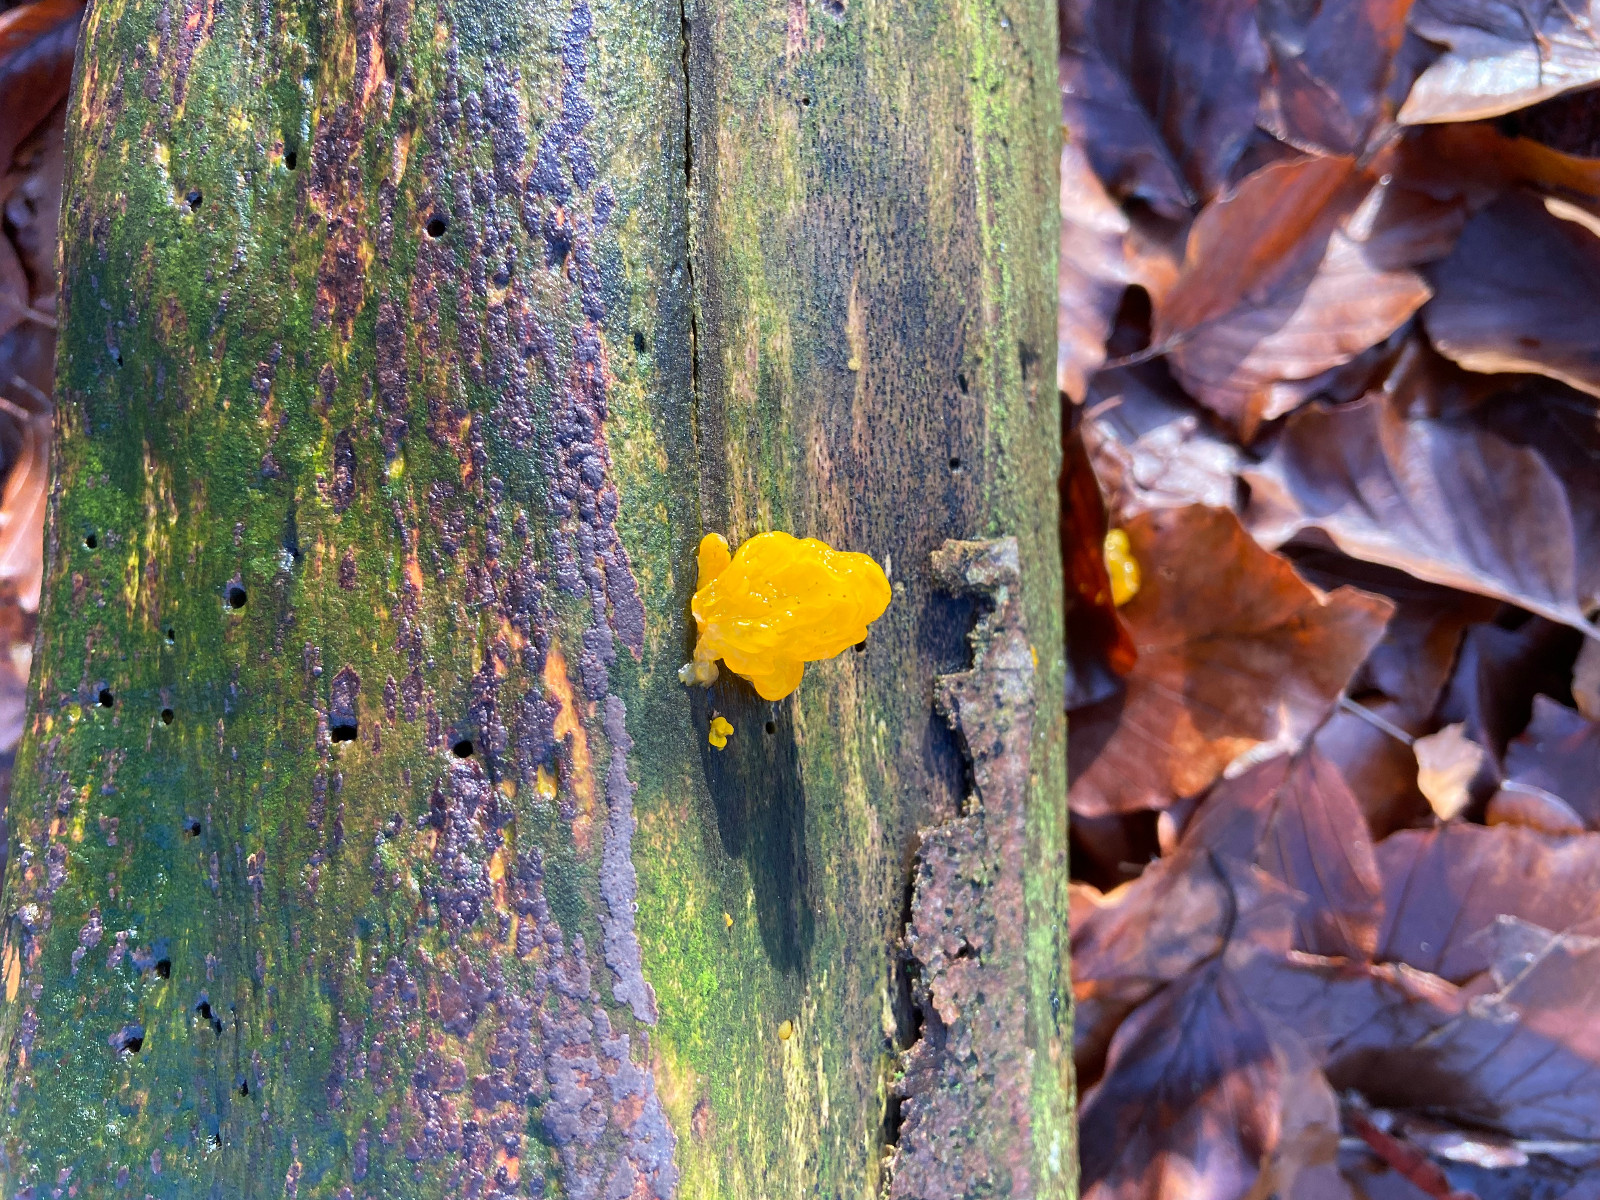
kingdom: Fungi
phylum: Basidiomycota
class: Tremellomycetes
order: Tremellales
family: Tremellaceae
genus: Tremella
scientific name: Tremella mesenterica
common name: gul bævresvamp
